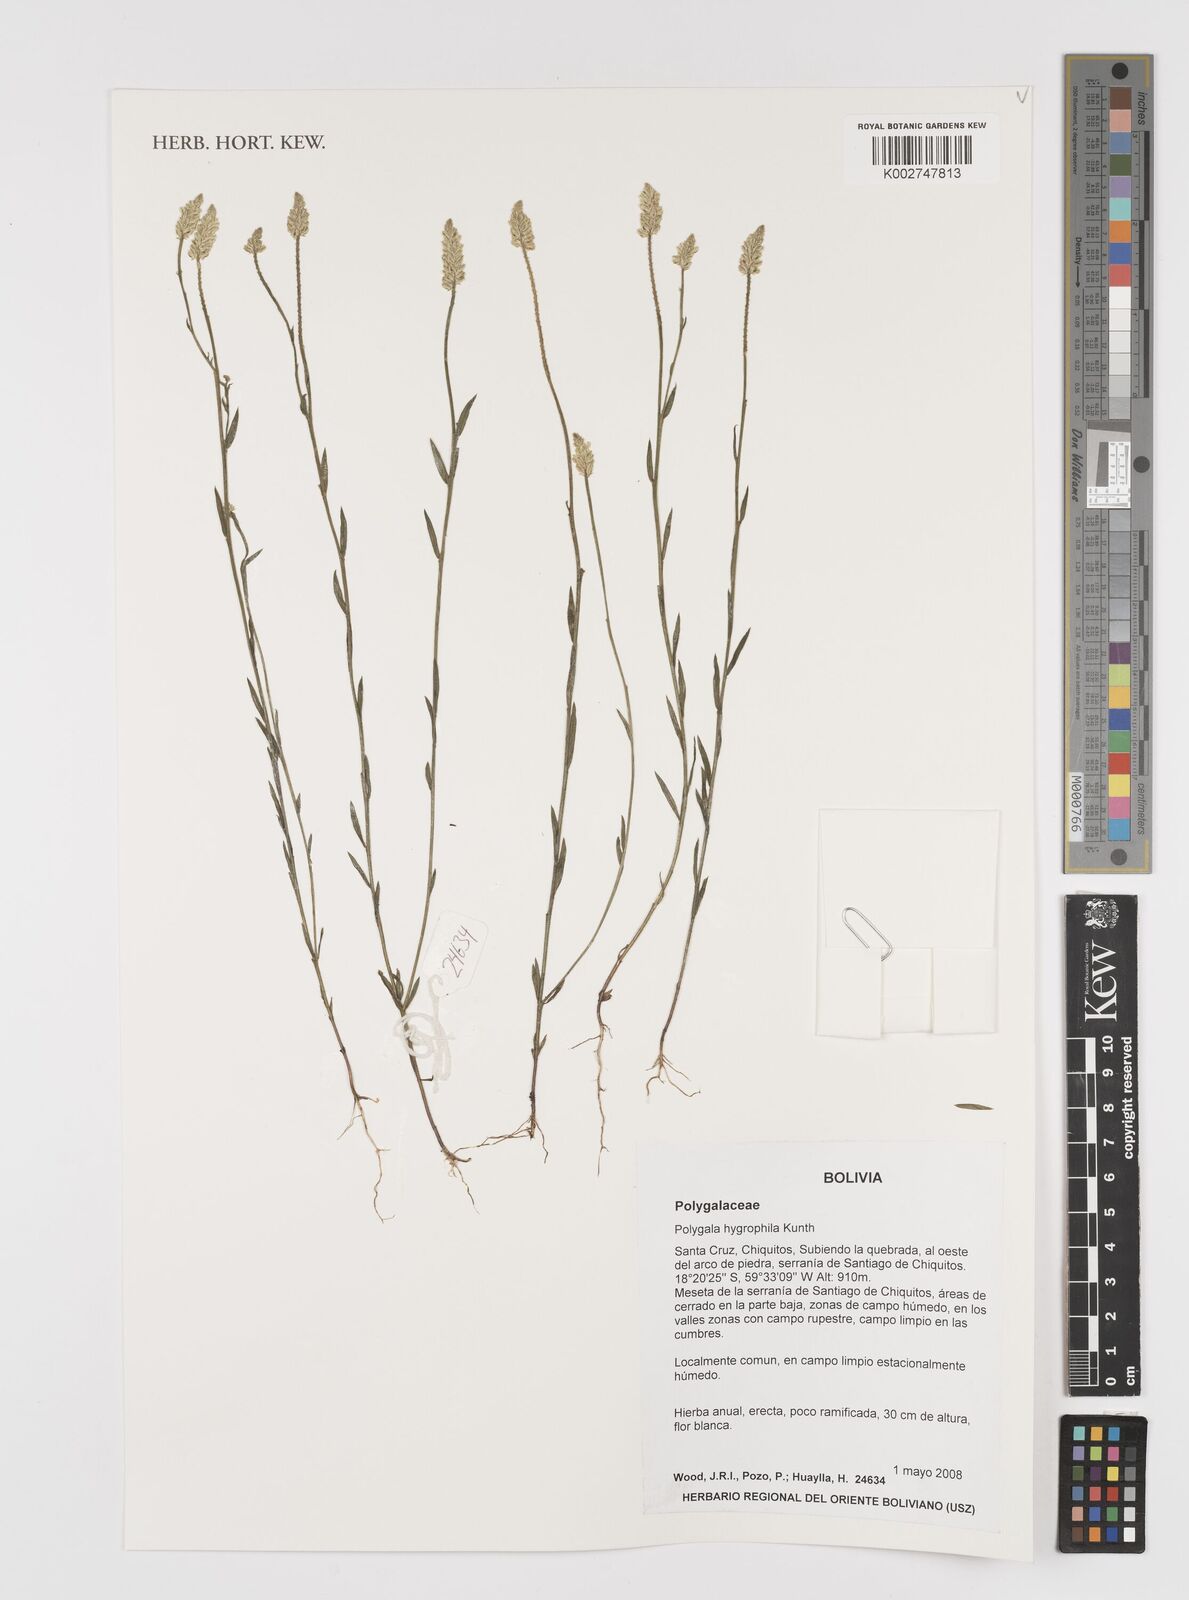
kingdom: Plantae
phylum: Tracheophyta
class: Magnoliopsida
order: Fabales
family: Polygalaceae
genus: Polygala
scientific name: Polygala hygrophila
